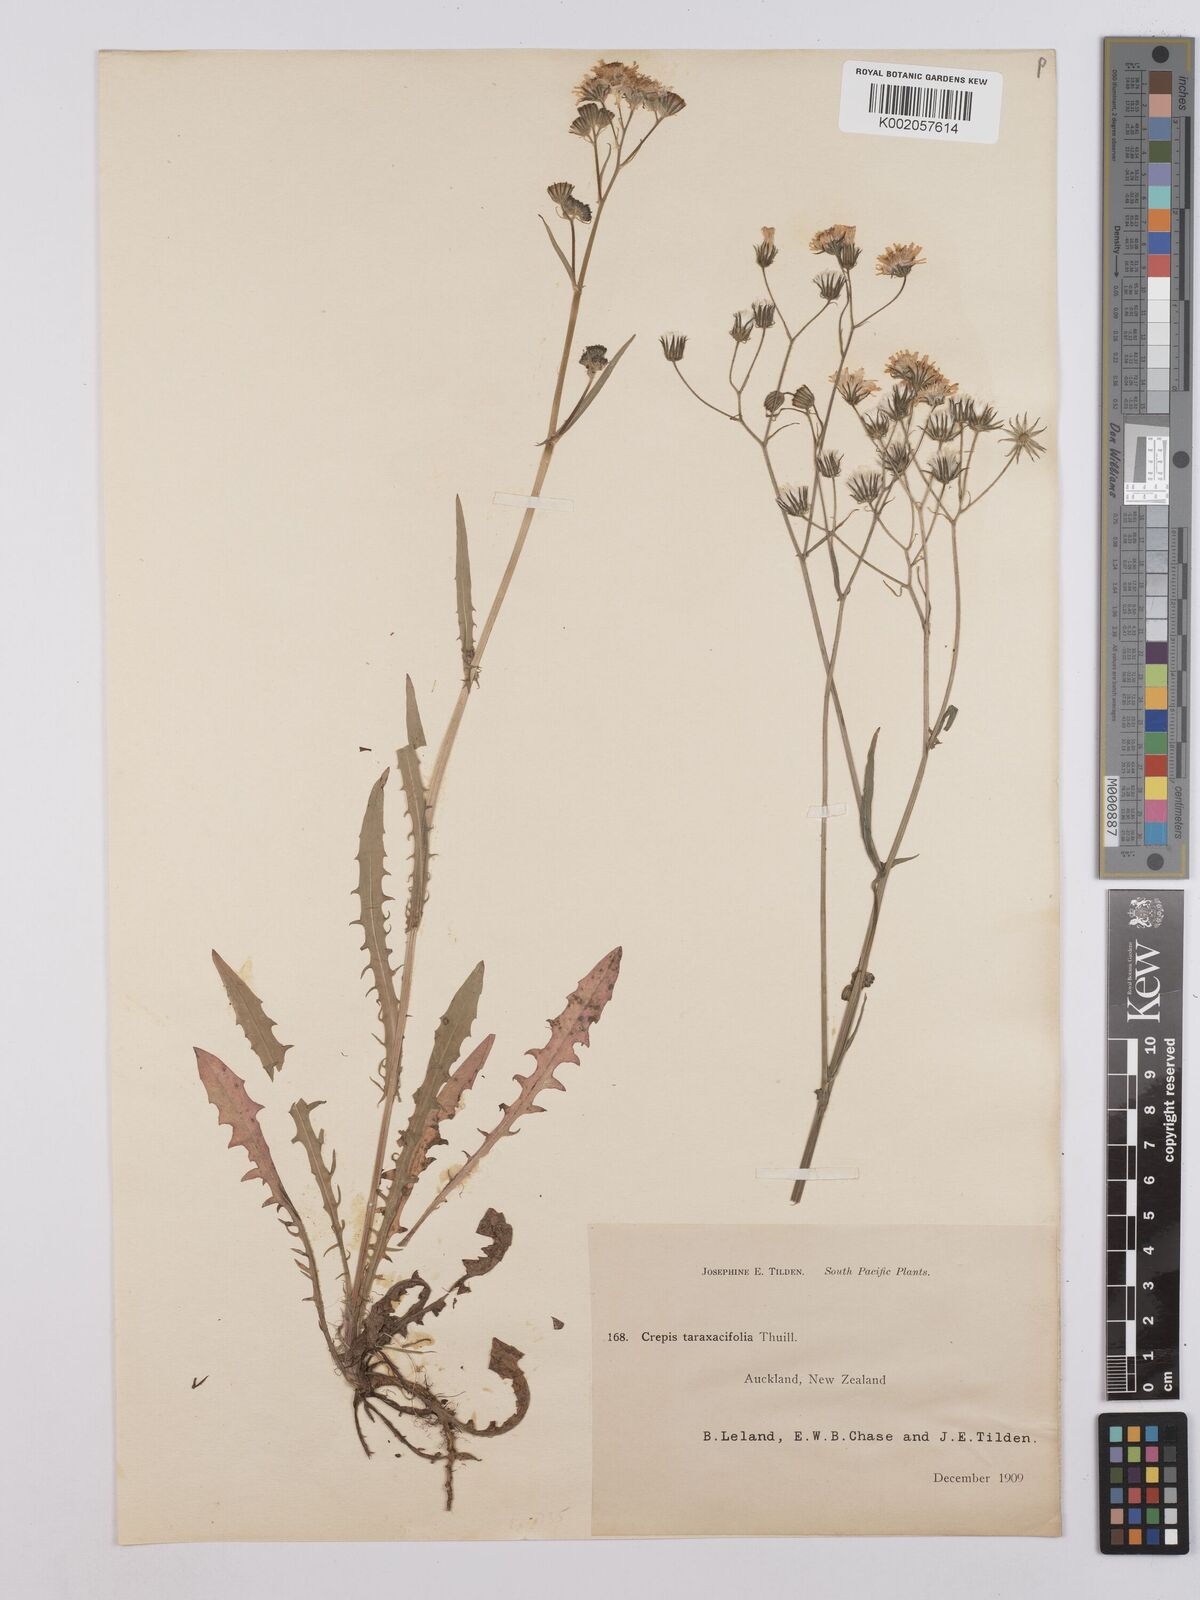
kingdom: Plantae
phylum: Tracheophyta
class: Magnoliopsida
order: Asterales
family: Asteraceae
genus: Crepis
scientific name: Crepis capillaris
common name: Smooth hawksbeard
